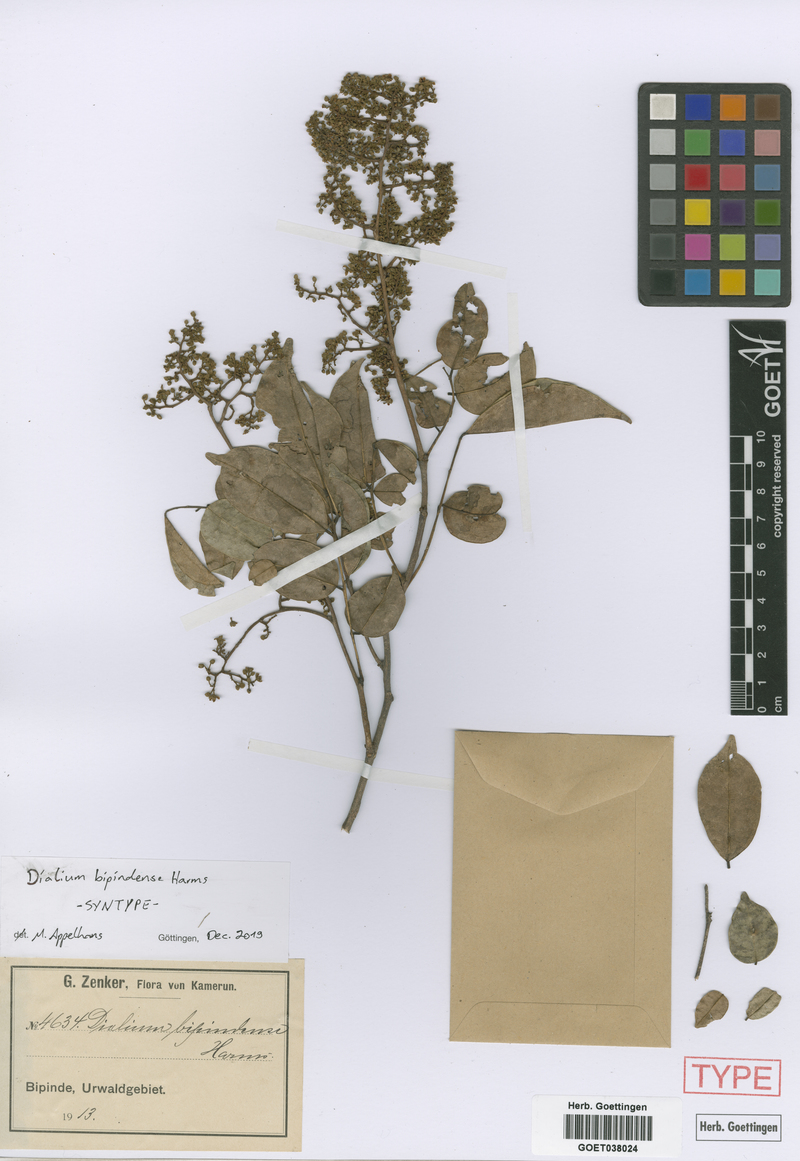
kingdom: Plantae
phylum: Tracheophyta
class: Magnoliopsida
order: Fabales
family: Fabaceae
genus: Dialium
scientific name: Dialium bipindense
